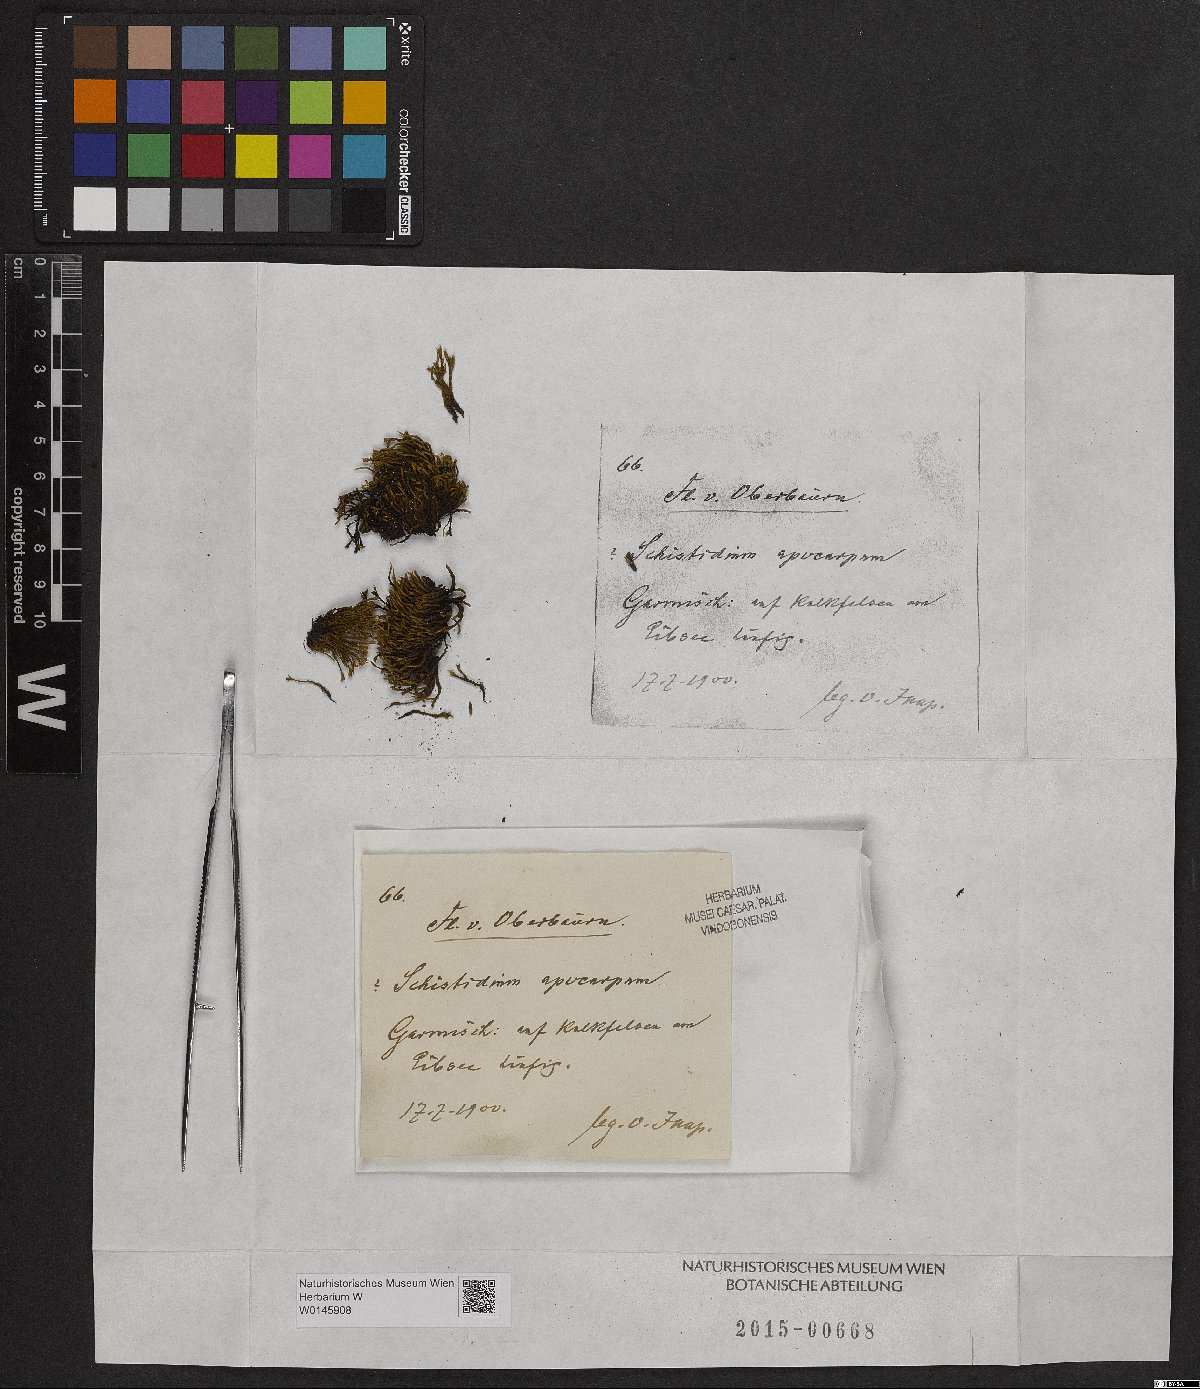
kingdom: Plantae
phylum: Bryophyta
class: Bryopsida
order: Grimmiales
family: Grimmiaceae
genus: Schistidium
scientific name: Schistidium apocarpum
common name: Radiate bloom moss
